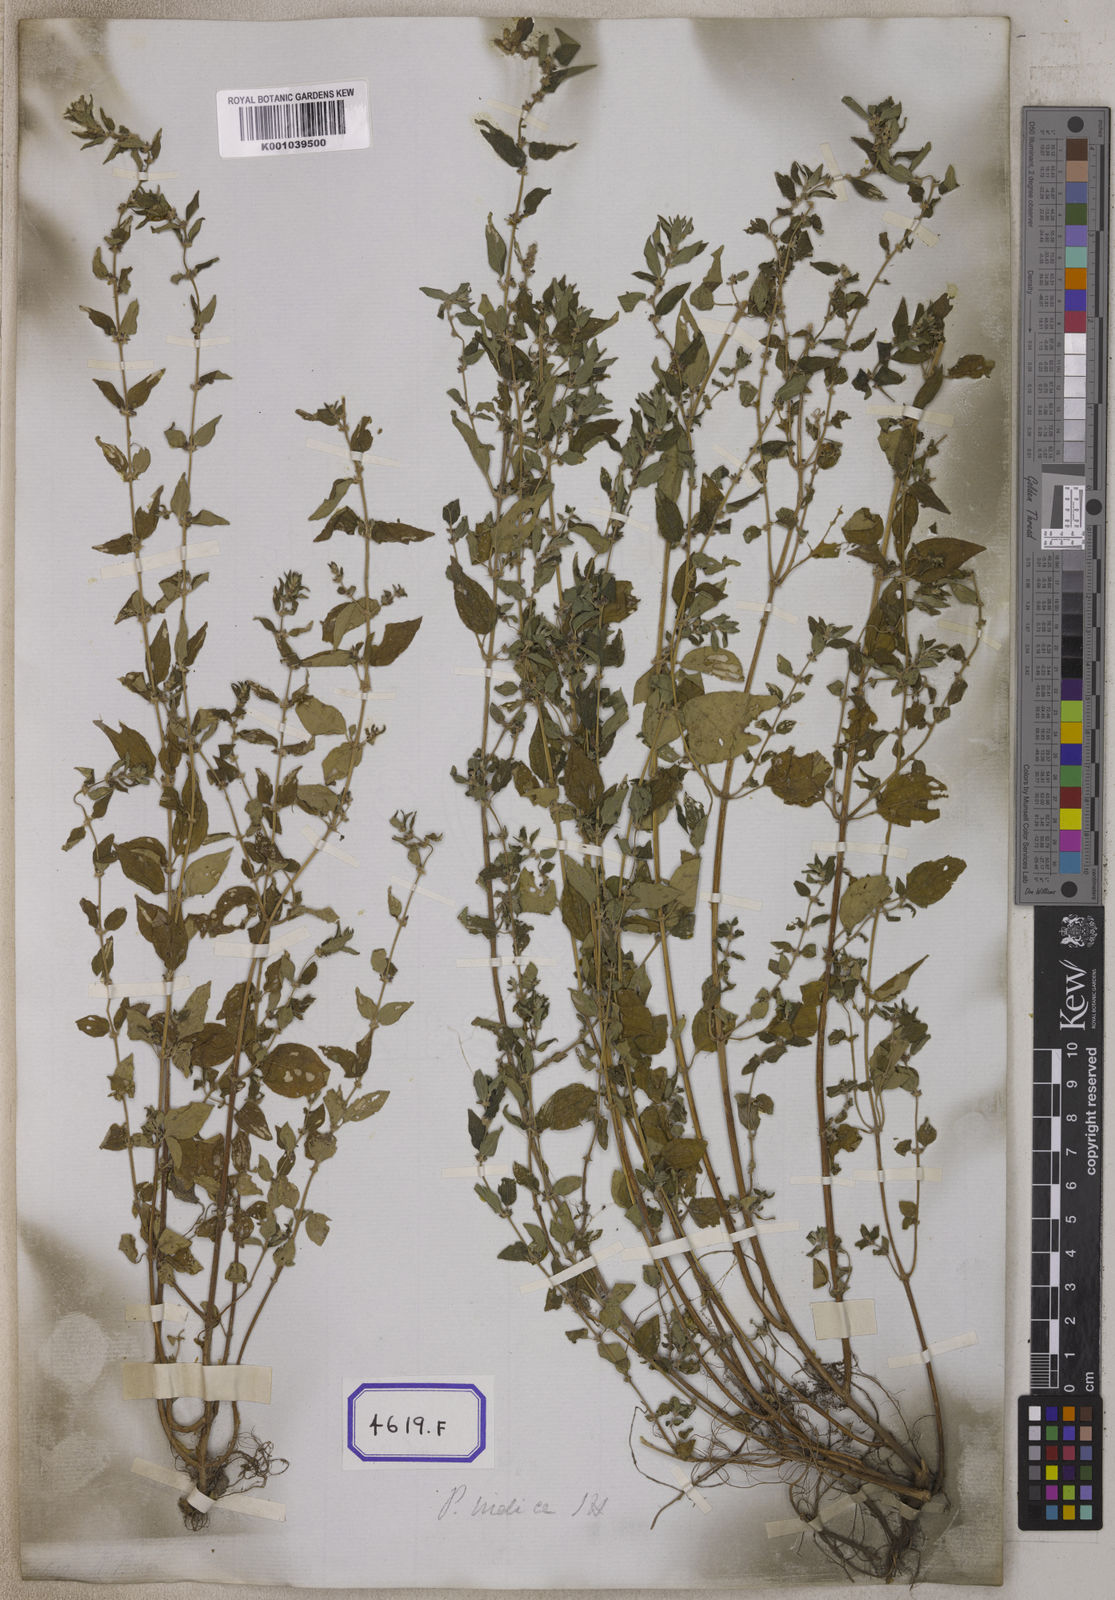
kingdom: Plantae
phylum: Tracheophyta
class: Magnoliopsida
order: Rosales
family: Urticaceae
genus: Pouzolzia
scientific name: Pouzolzia zeylanica
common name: Graceful pouzolzsbush
